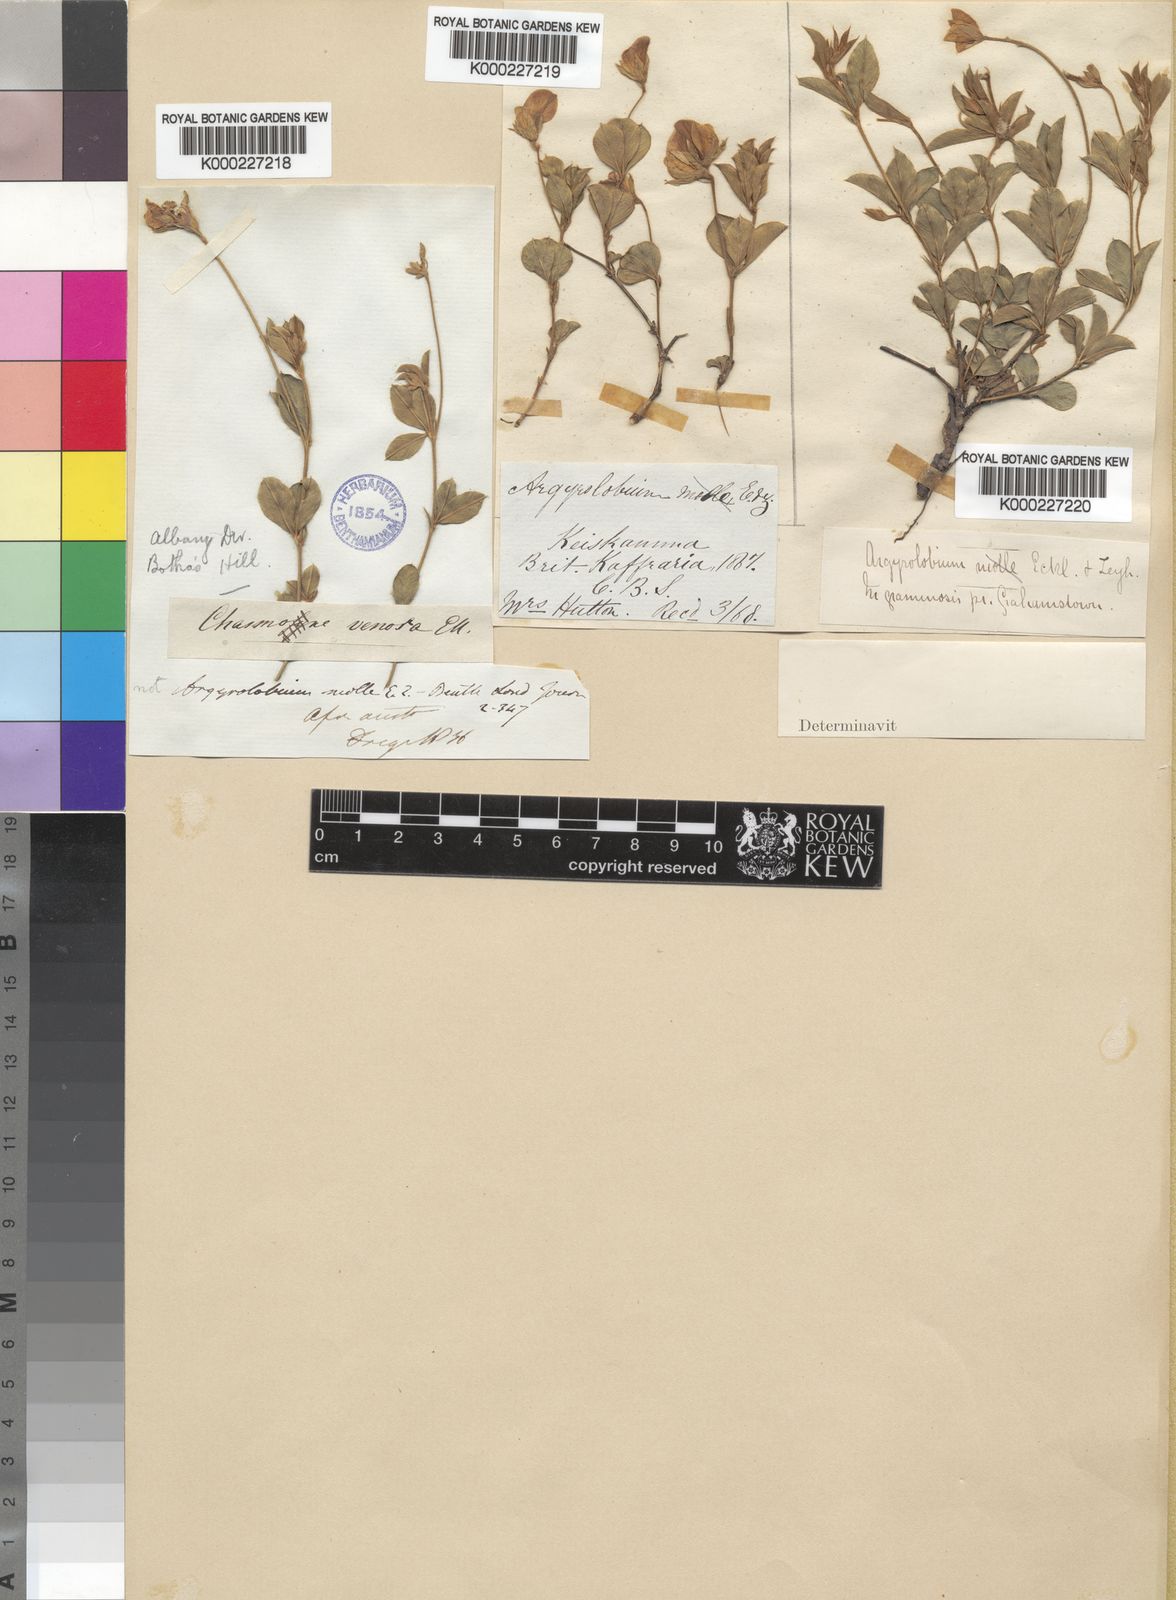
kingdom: Plantae
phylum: Tracheophyta
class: Magnoliopsida
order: Fabales
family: Fabaceae
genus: Argyrolobium
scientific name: Argyrolobium molle
